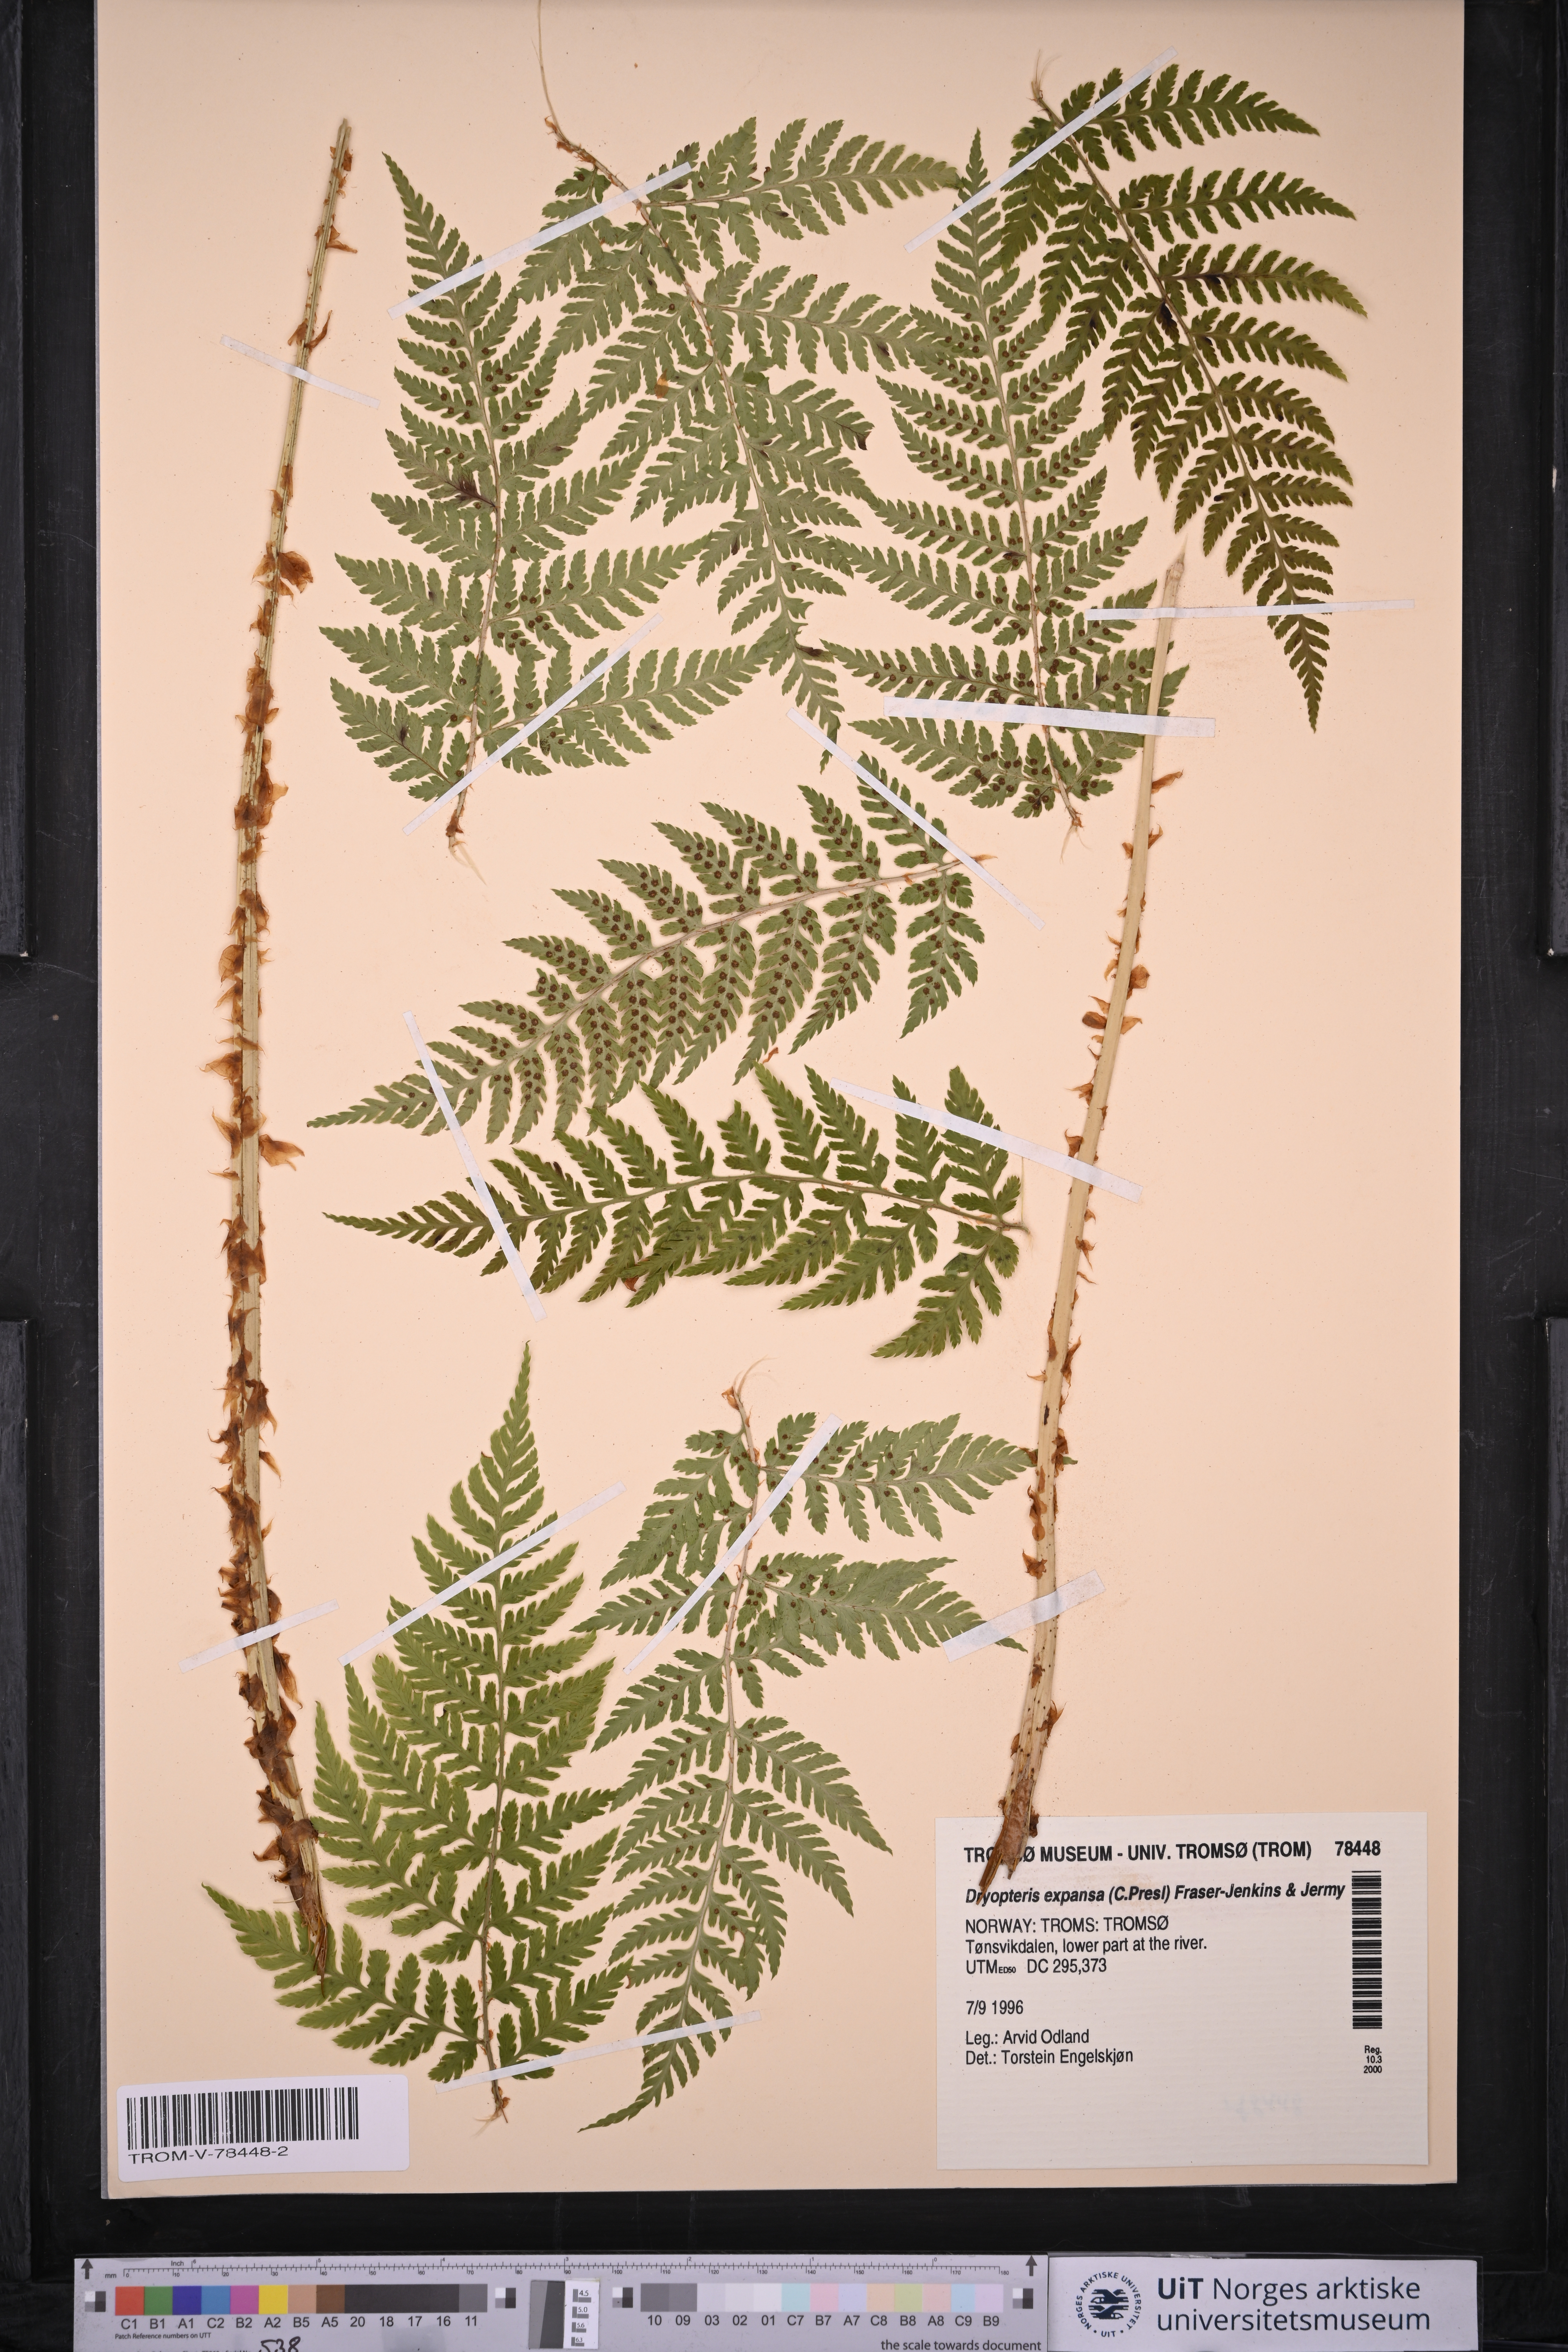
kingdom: Plantae
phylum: Tracheophyta
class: Polypodiopsida
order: Polypodiales
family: Dryopteridaceae
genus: Dryopteris
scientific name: Dryopteris expansa
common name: Northern buckler fern
